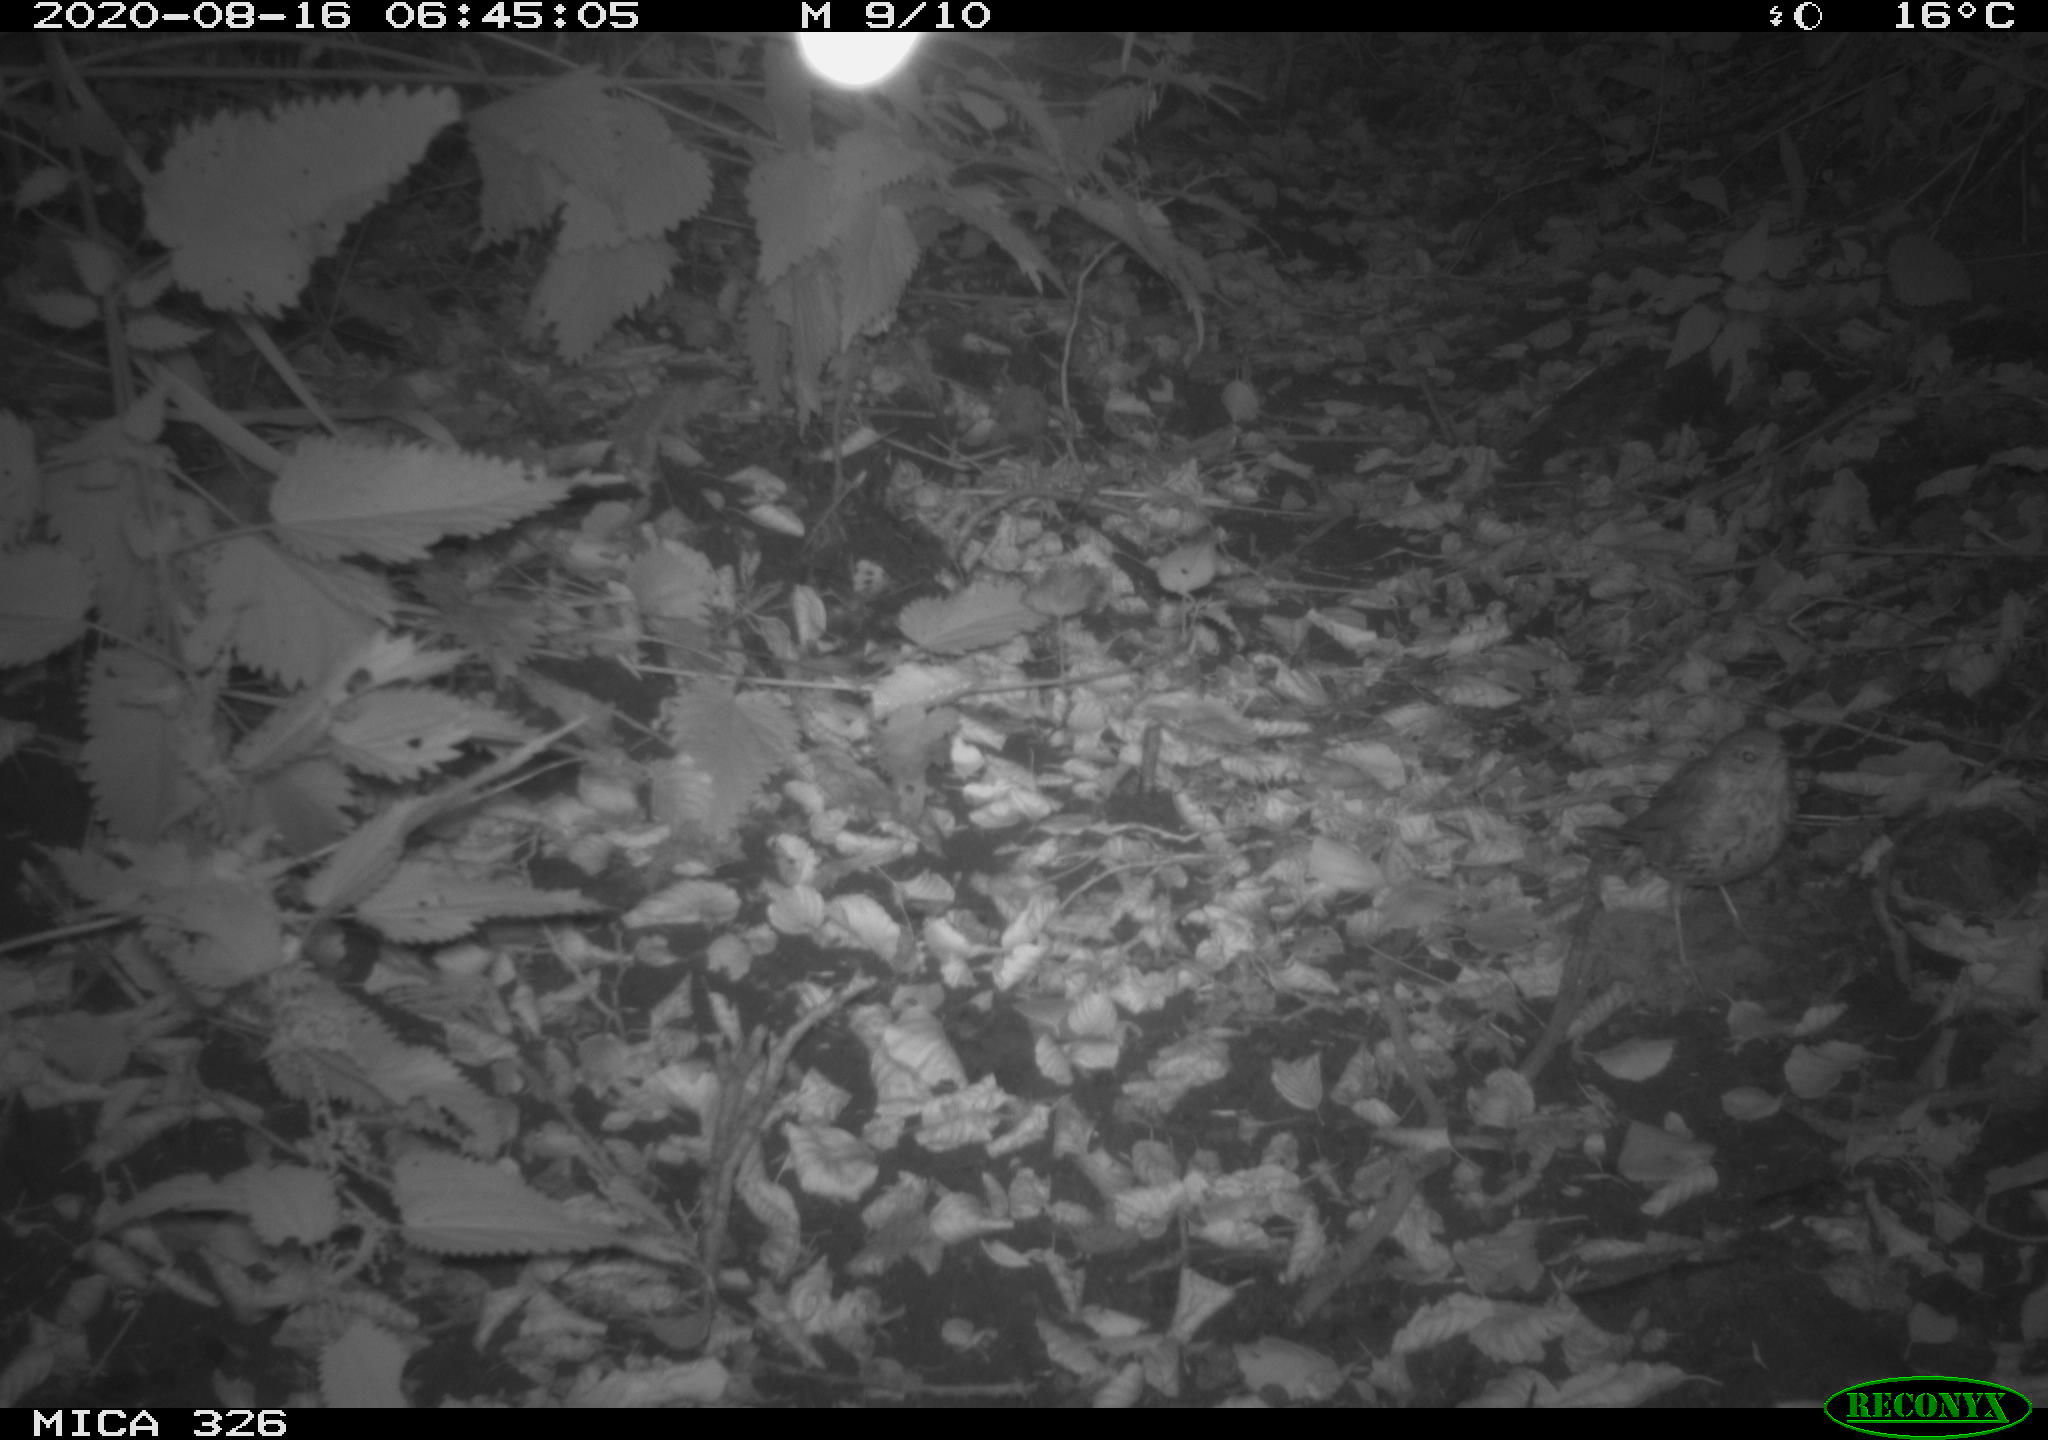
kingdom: Animalia
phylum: Chordata
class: Aves
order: Passeriformes
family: Turdidae
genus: Turdus
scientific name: Turdus philomelos
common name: Song thrush
